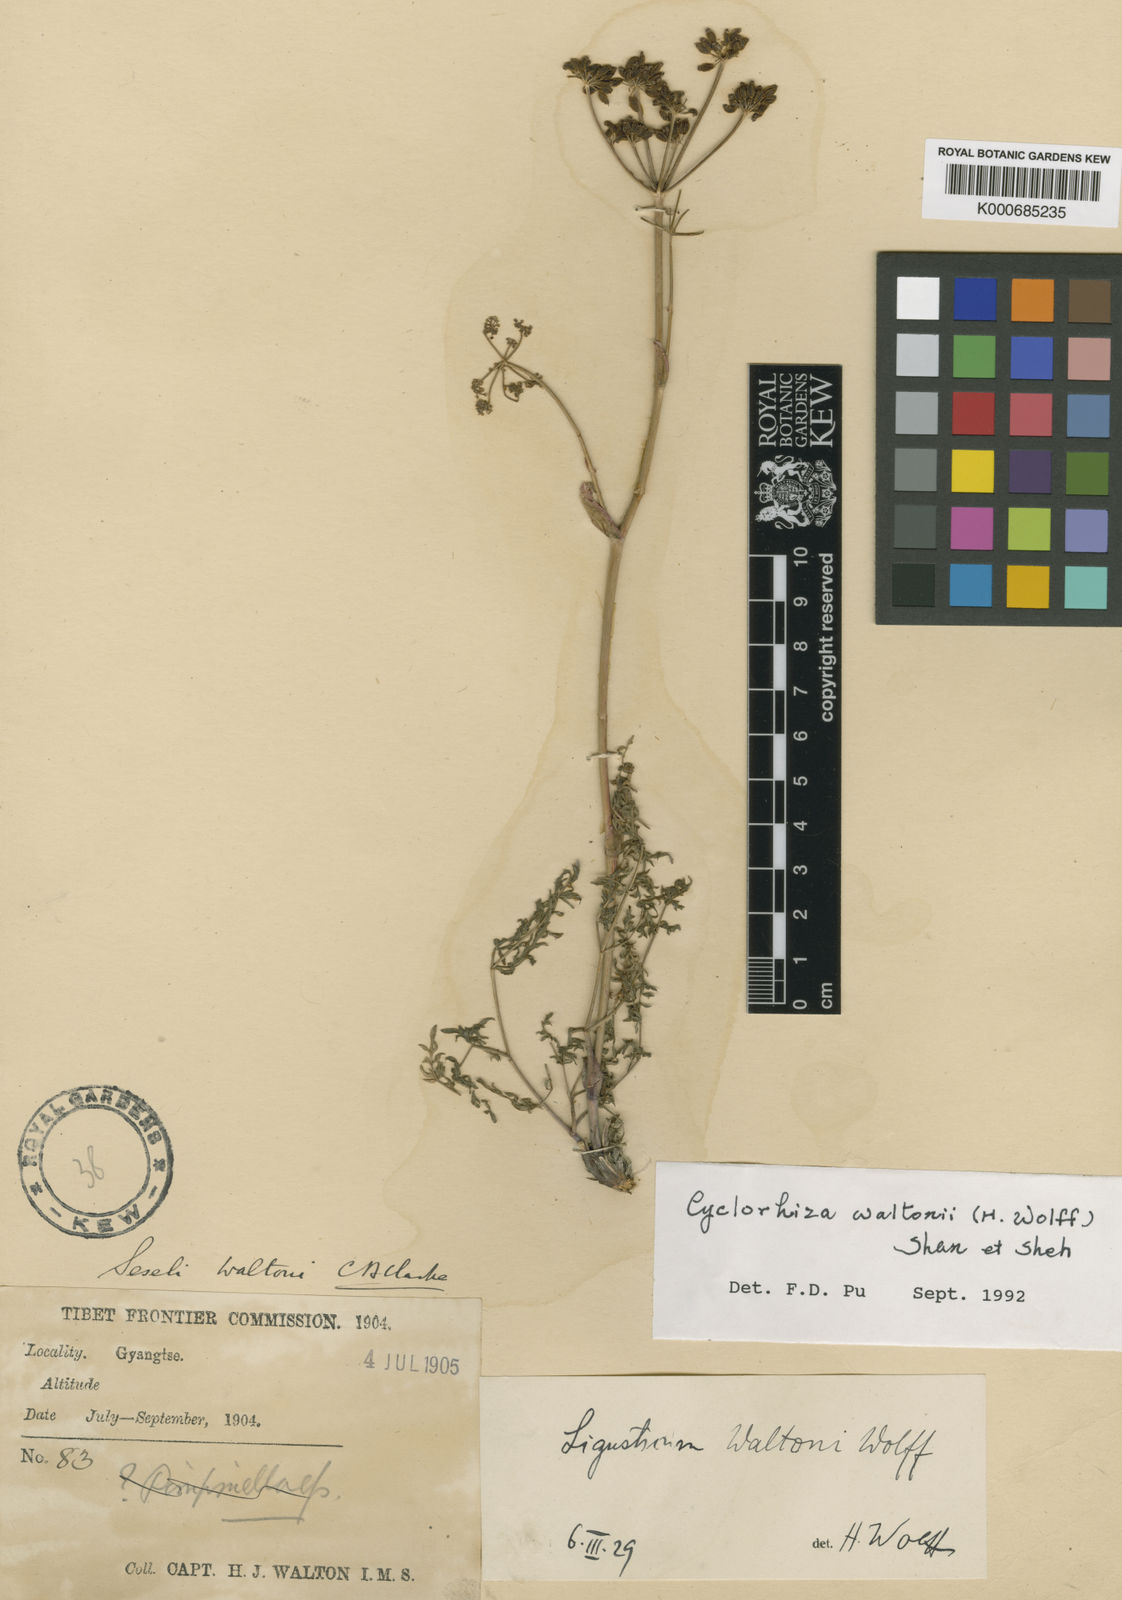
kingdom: Plantae
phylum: Tracheophyta
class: Magnoliopsida
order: Apiales
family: Apiaceae
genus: Cyclorhiza
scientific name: Cyclorhiza waltonii
